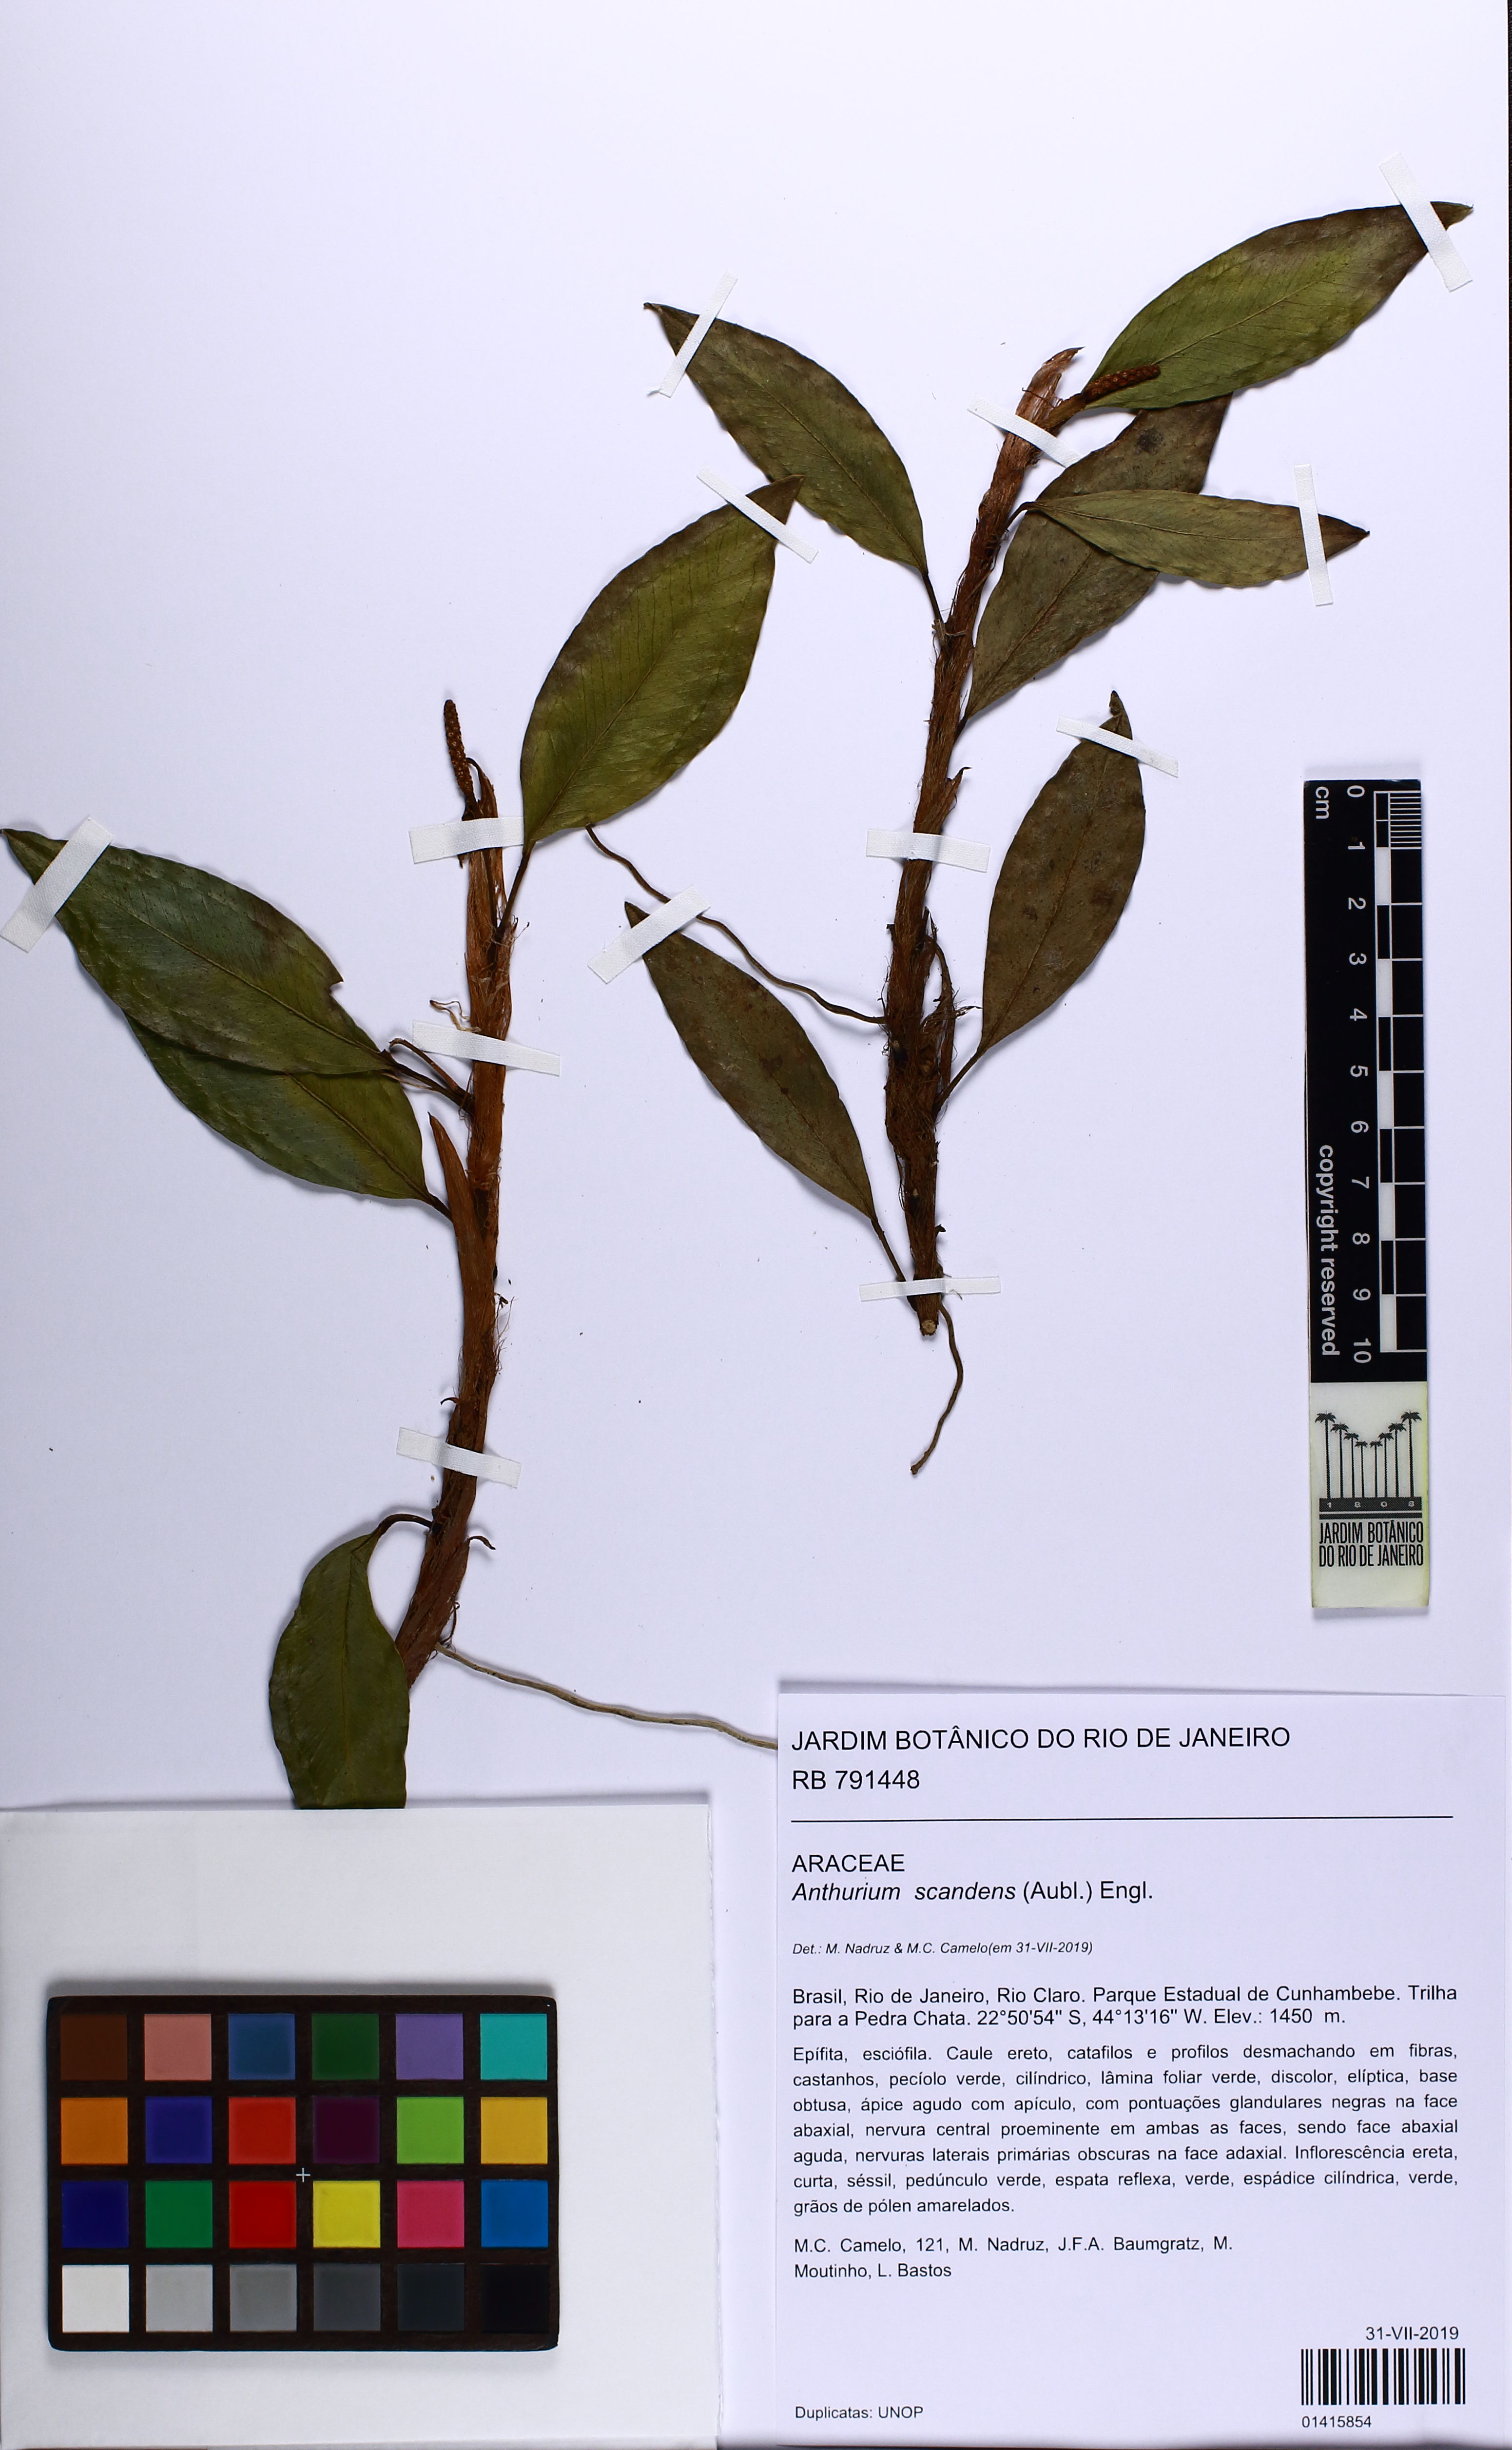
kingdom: Plantae
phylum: Tracheophyta
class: Liliopsida
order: Alismatales
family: Araceae
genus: Anthurium
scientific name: Anthurium scandens
